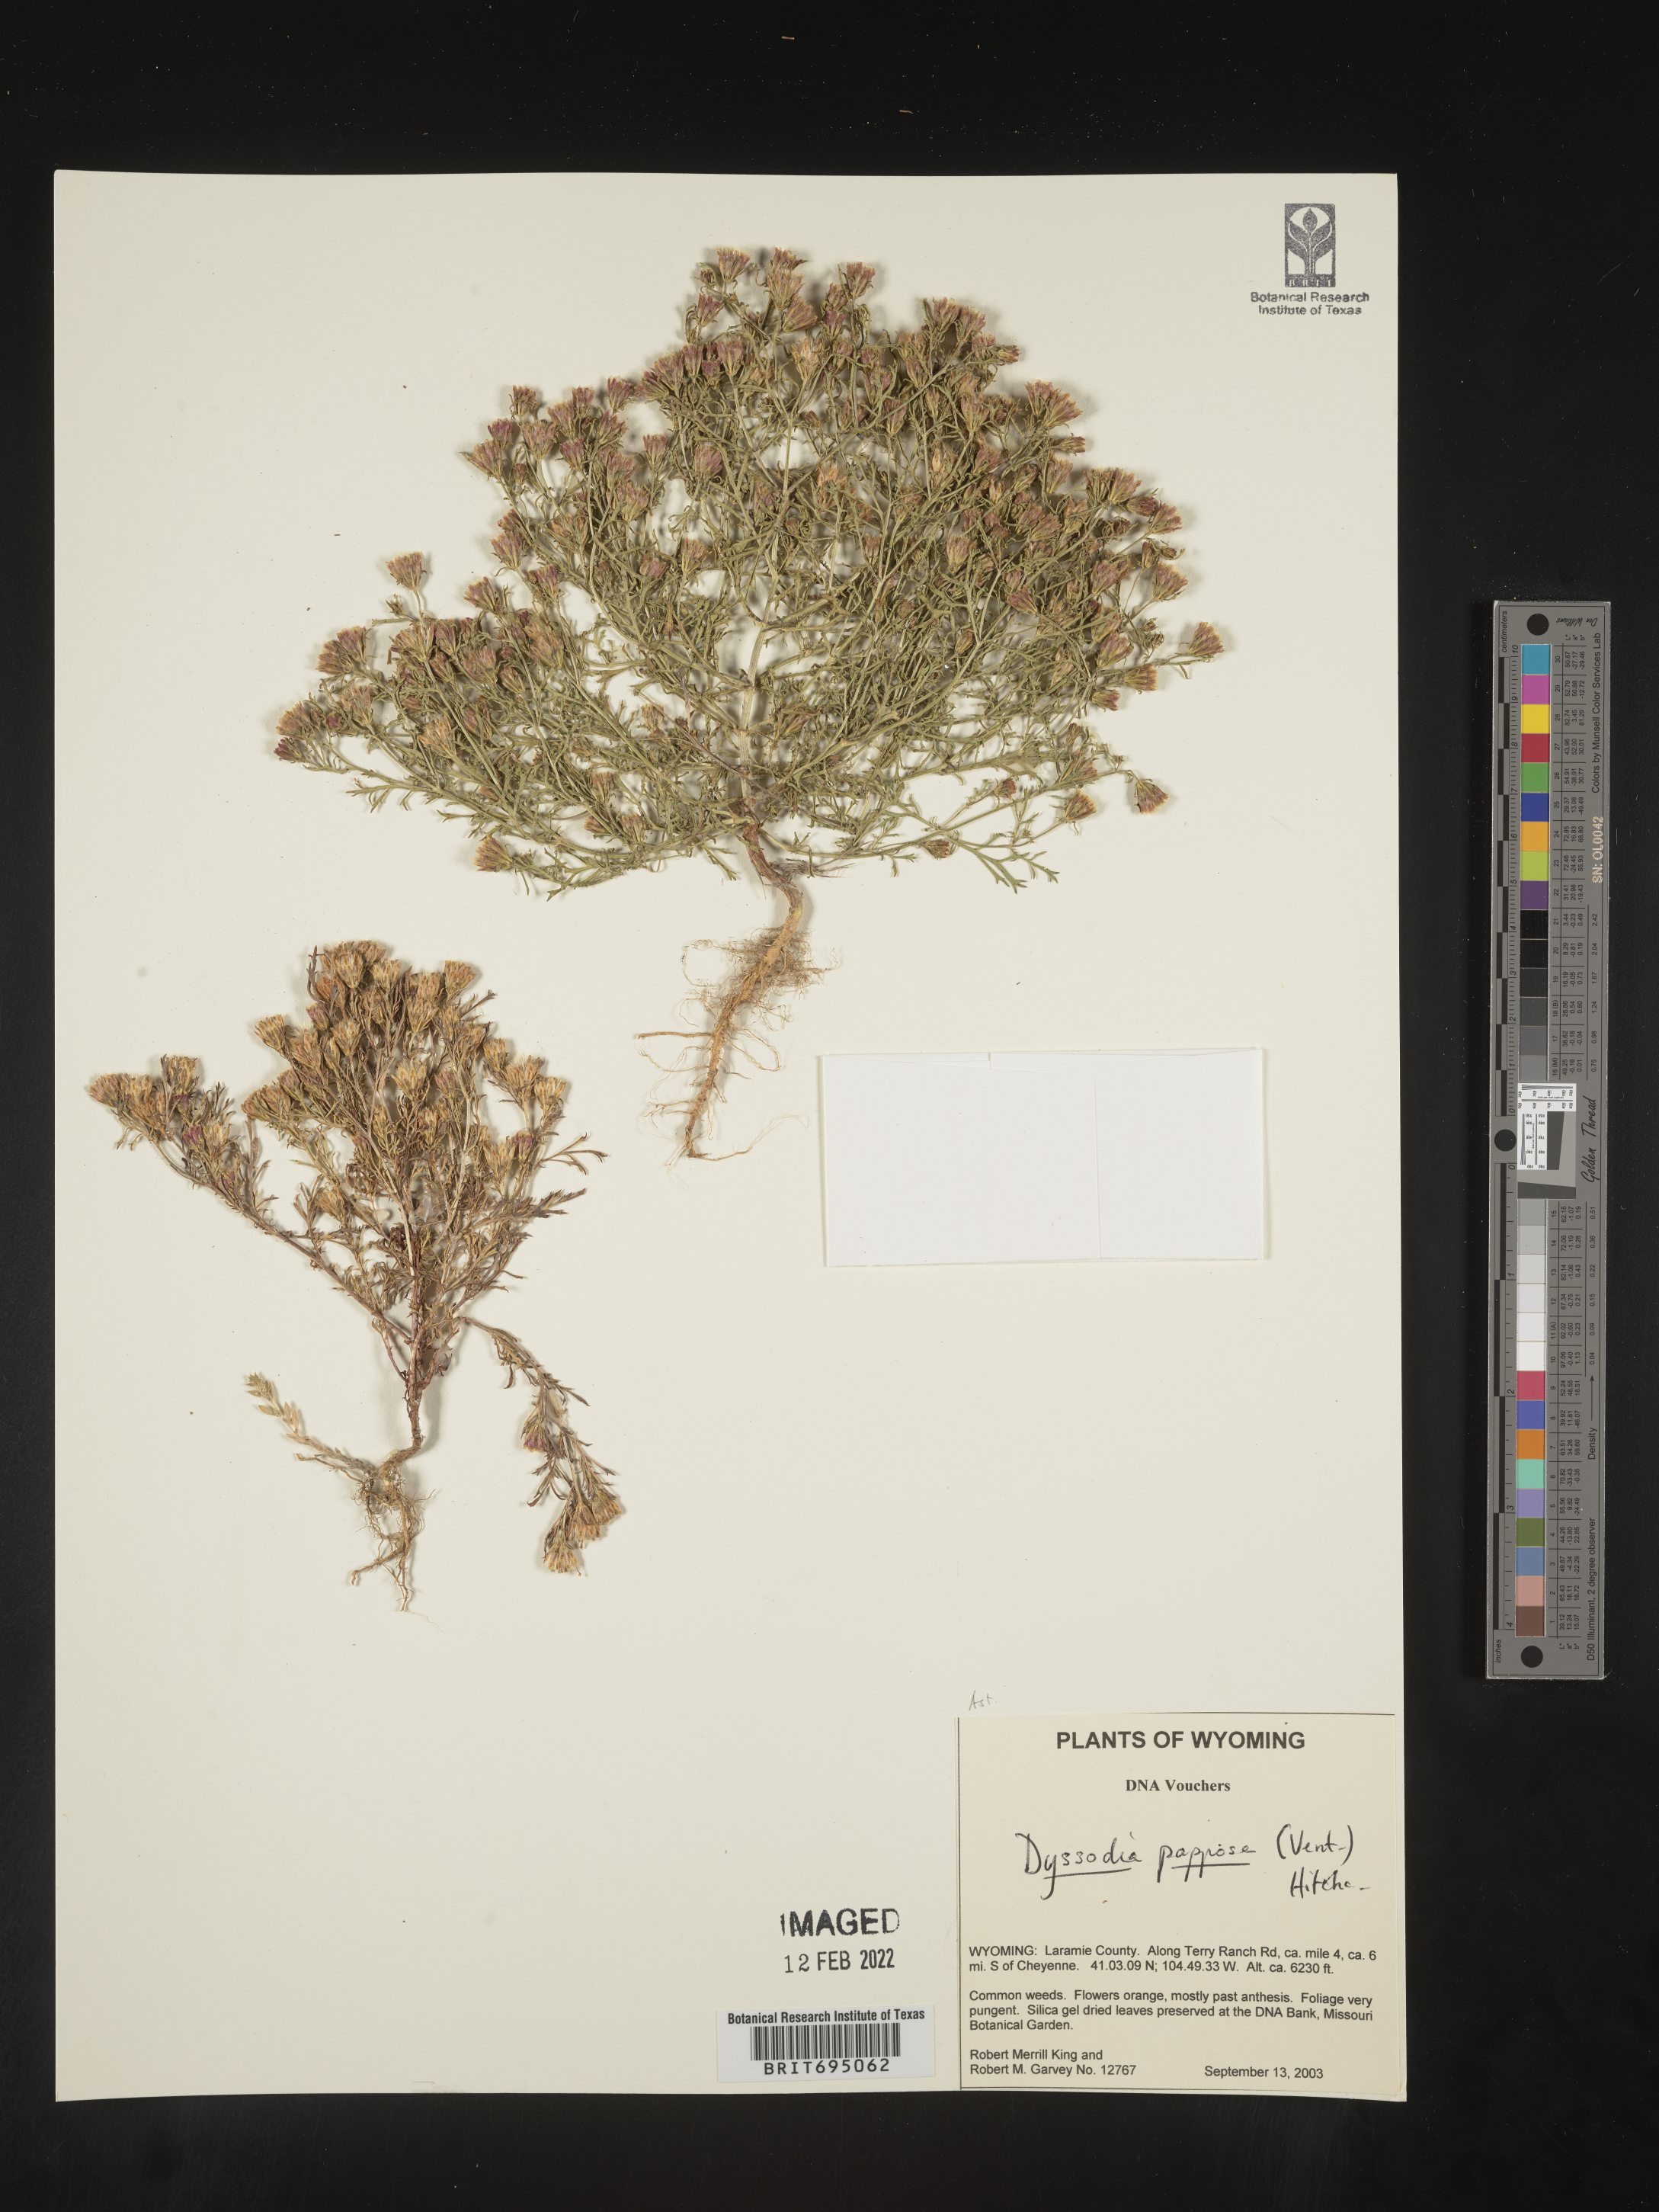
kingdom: Plantae
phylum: Tracheophyta
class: Magnoliopsida
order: Asterales
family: Asteraceae
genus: Dyssodia
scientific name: Dyssodia papposa
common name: Dogweed
